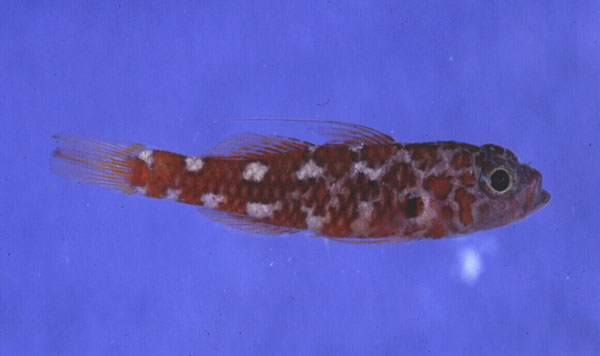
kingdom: Animalia
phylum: Chordata
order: Perciformes
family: Gobiidae
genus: Trimma
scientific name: Trimma naudei
